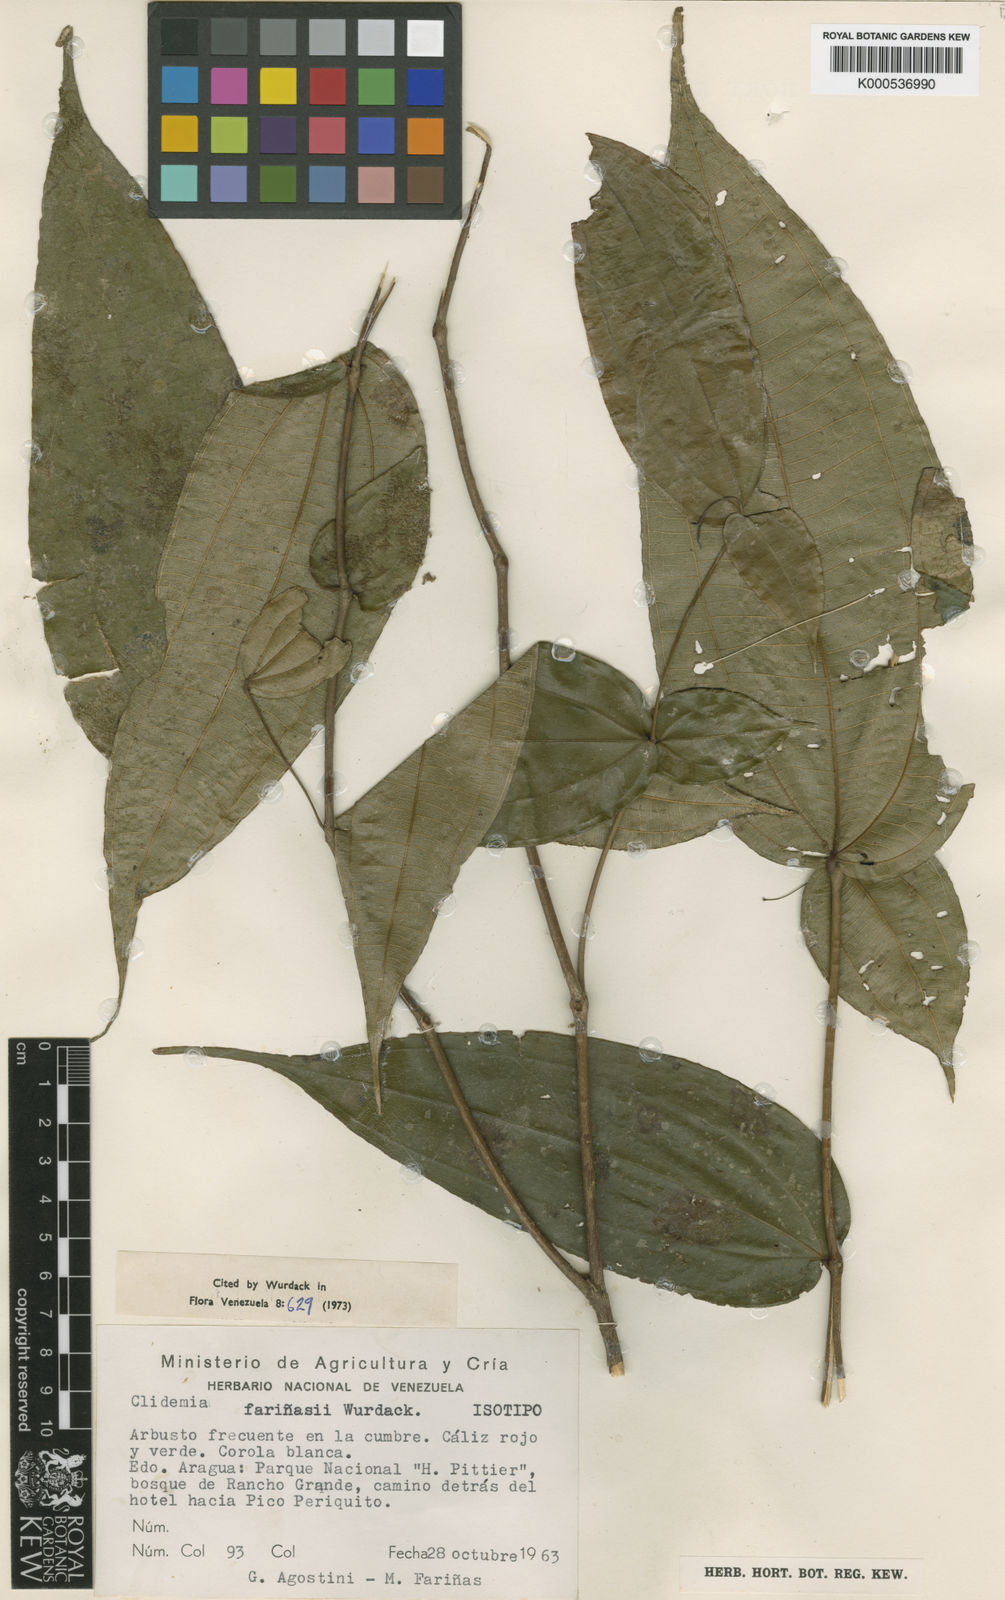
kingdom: Plantae
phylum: Tracheophyta
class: Magnoliopsida
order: Myrtales
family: Melastomataceae
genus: Miconia
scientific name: Miconia
